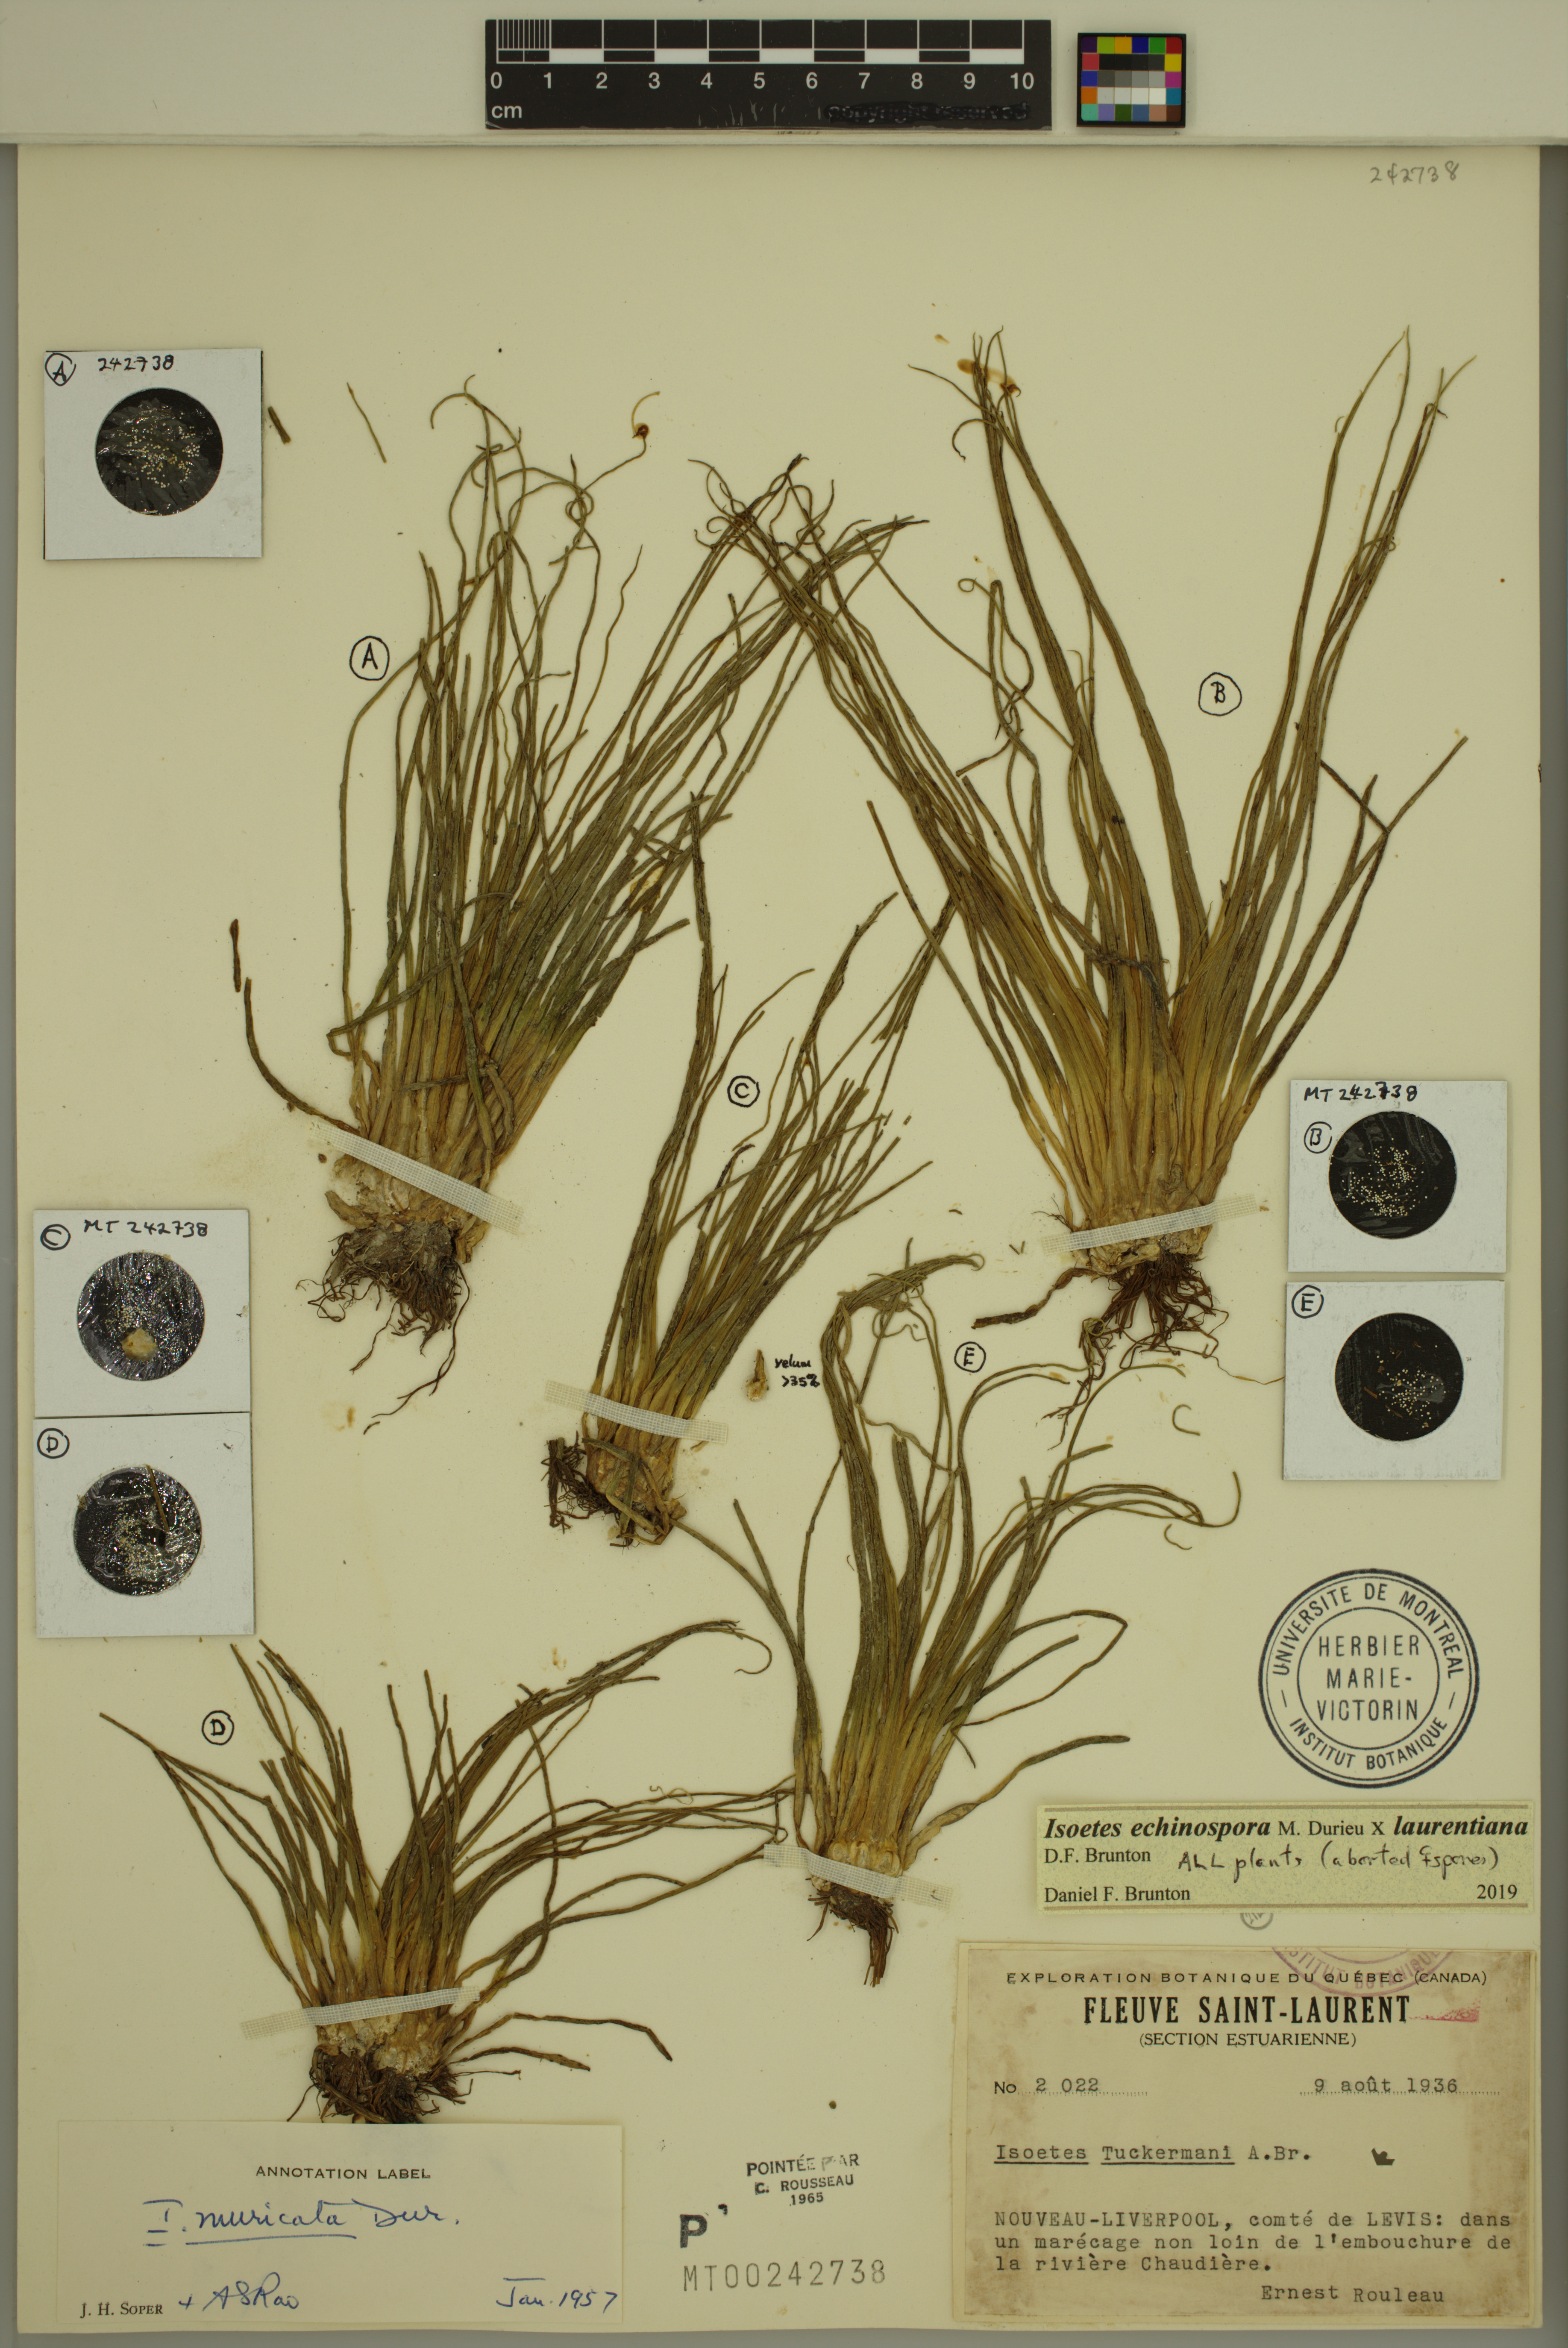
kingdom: Plantae
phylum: Tracheophyta
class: Lycopodiopsida
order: Isoetales
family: Isoetaceae
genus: Isoetes
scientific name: Isoetes echinospora
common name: Spring quillwort
